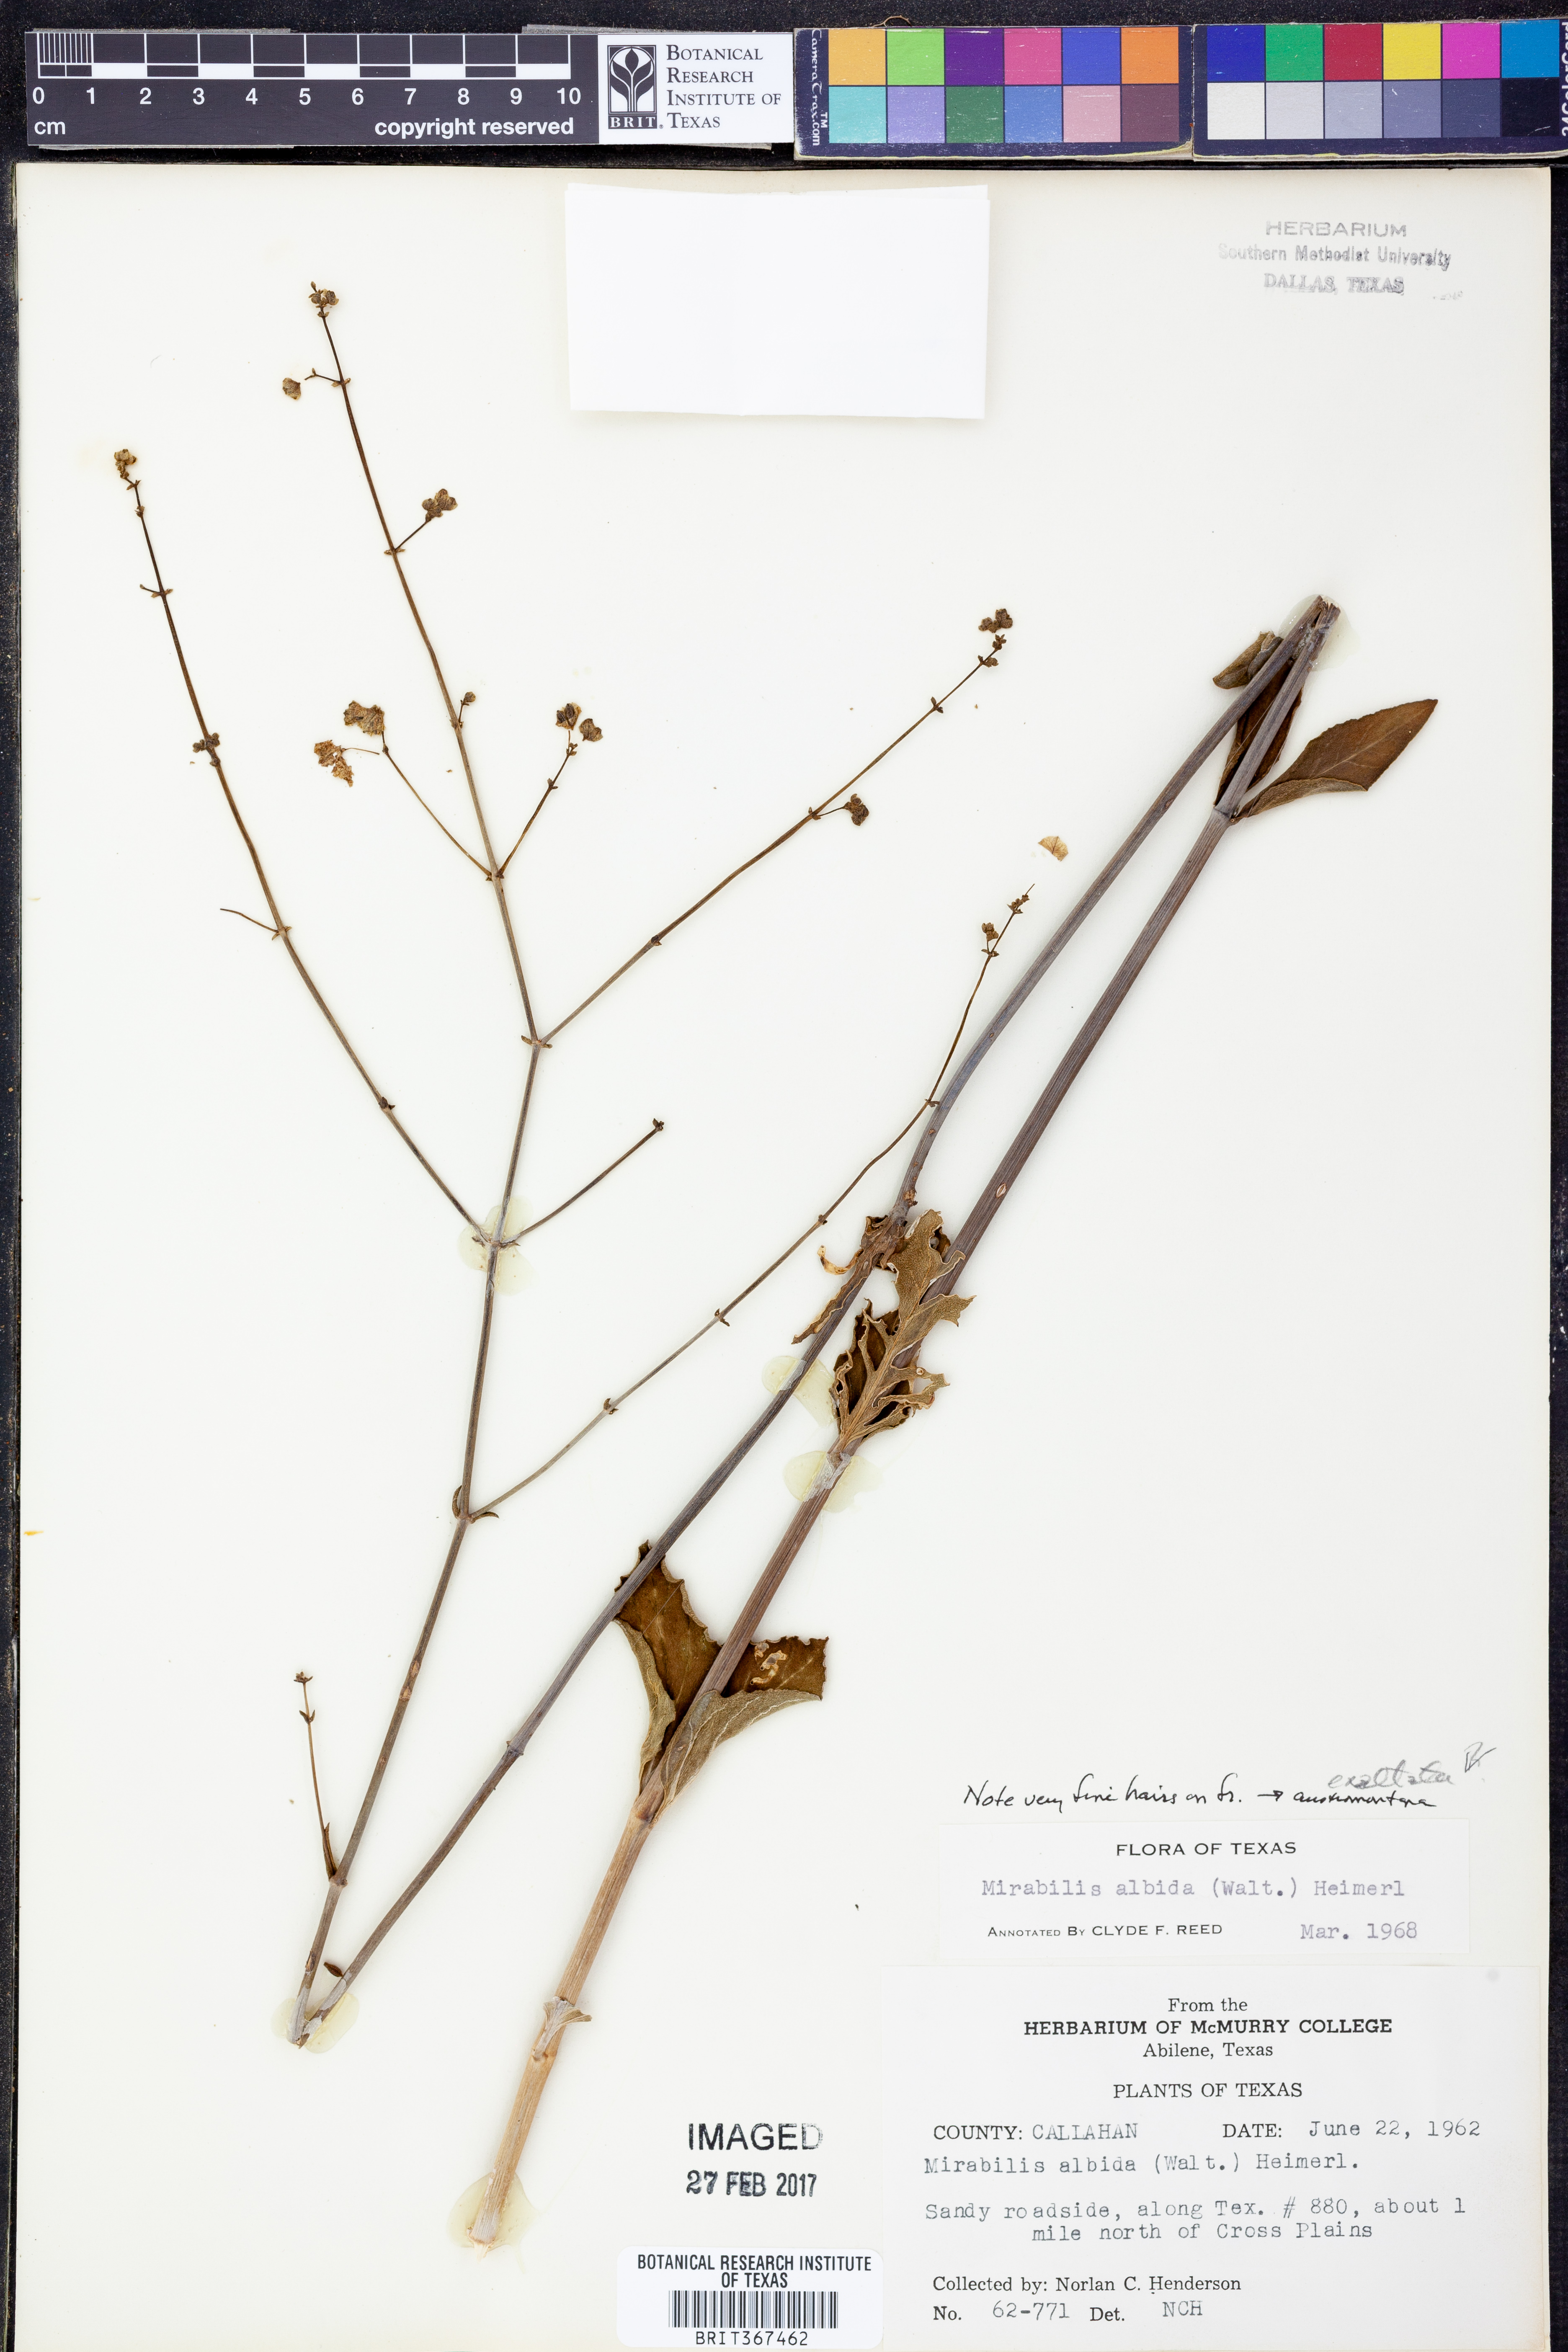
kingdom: Plantae
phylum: Tracheophyta
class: Magnoliopsida
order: Caryophyllales
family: Nyctaginaceae
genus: Mirabilis
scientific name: Mirabilis albida
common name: Hairy four-o'clock
